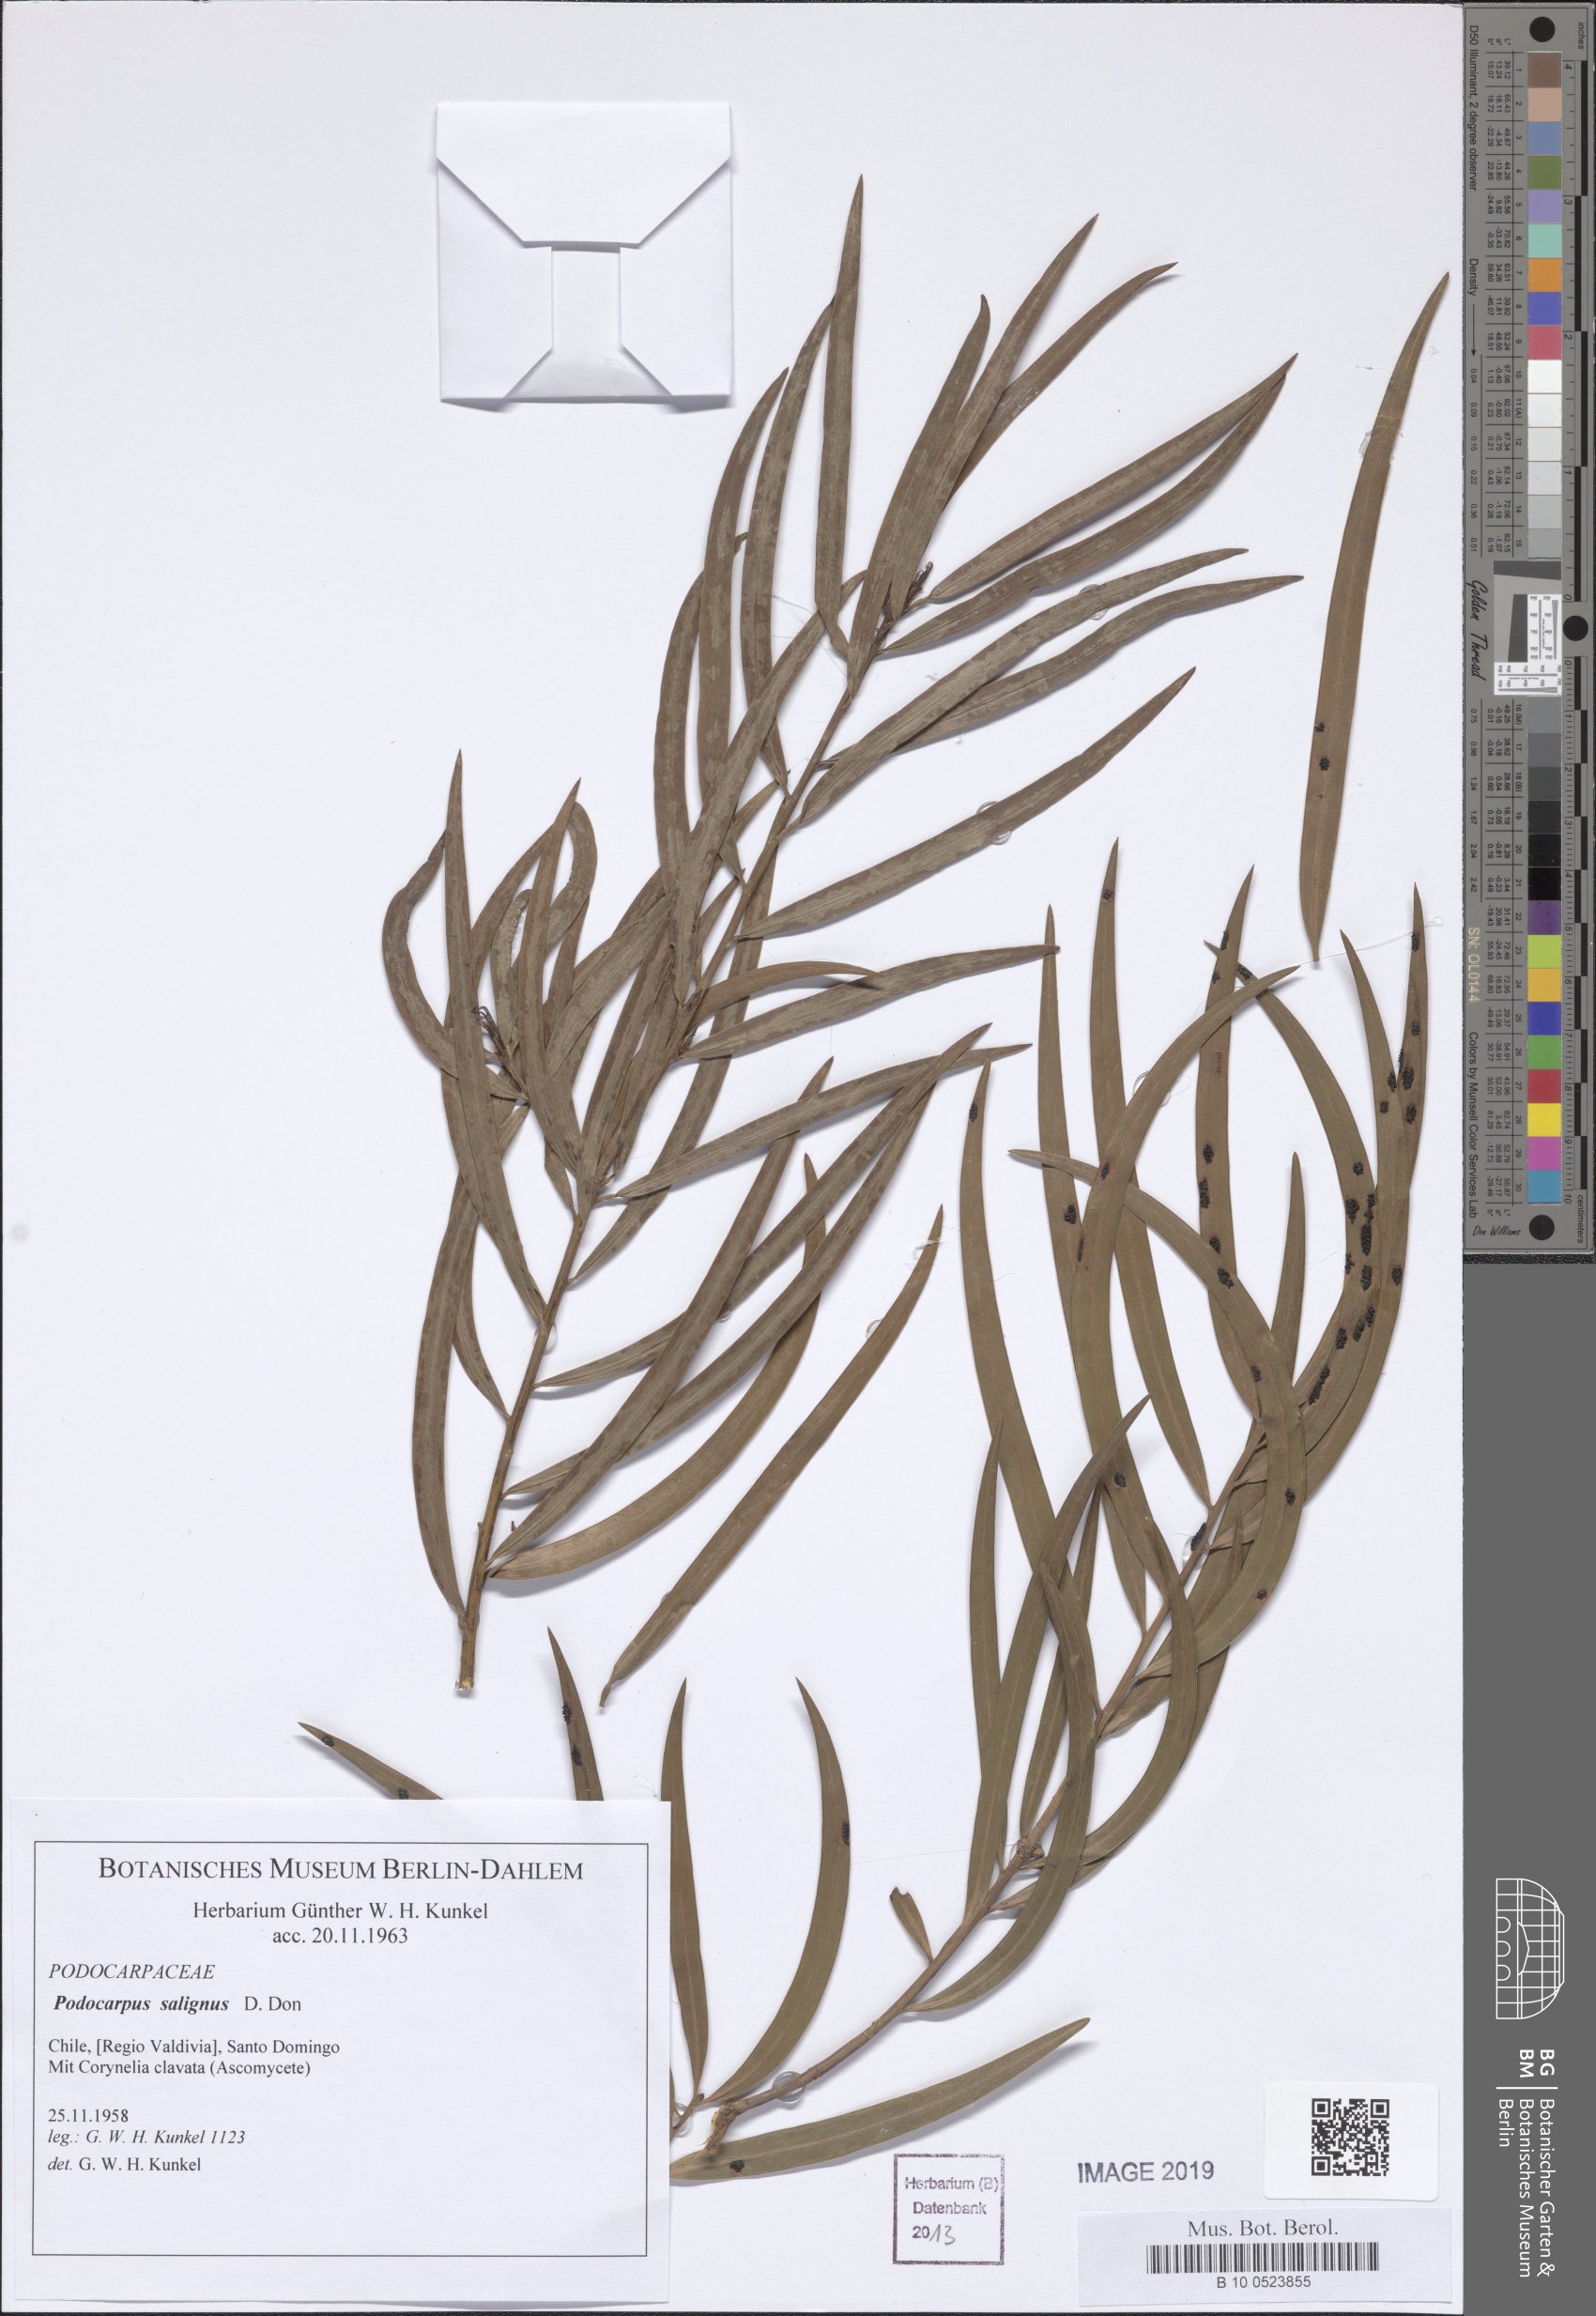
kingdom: Plantae
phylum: Tracheophyta
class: Pinopsida
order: Pinales
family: Podocarpaceae
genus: Podocarpus
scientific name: Podocarpus salignus
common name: Willow-leaf podocarp
